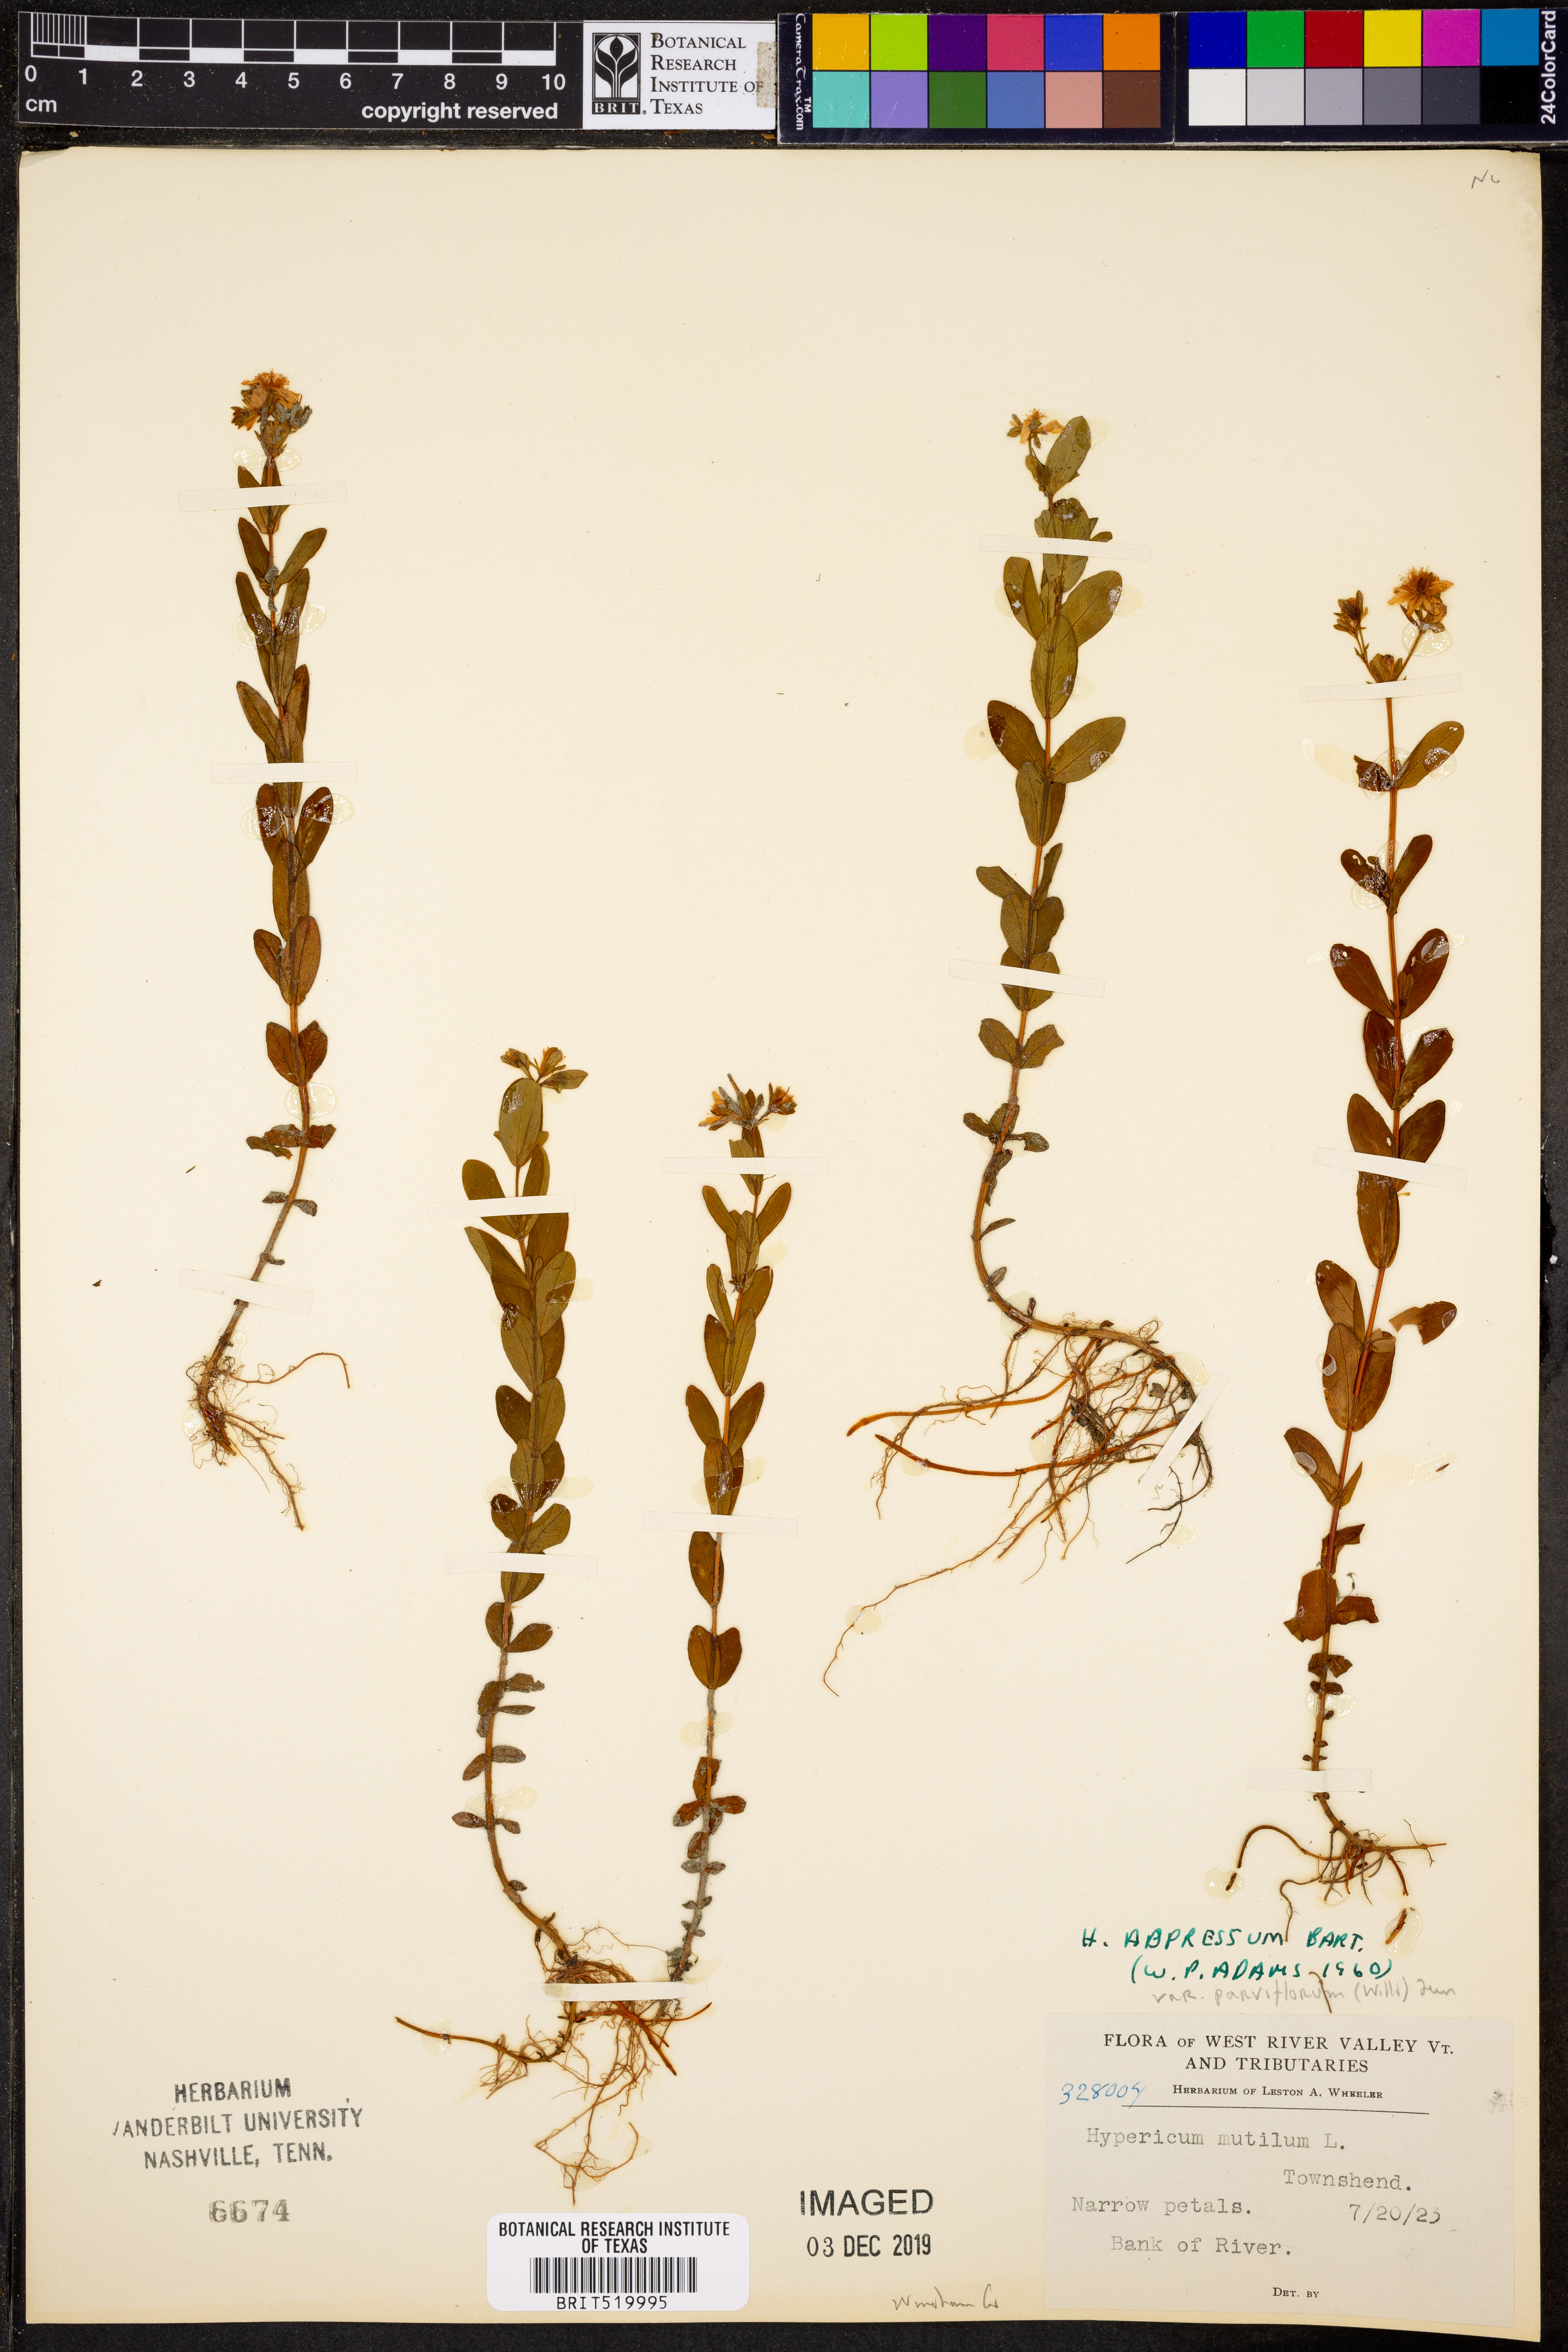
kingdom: Plantae
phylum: Tracheophyta
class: Magnoliopsida
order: Malpighiales
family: Hypericaceae
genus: Hypericum
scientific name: Hypericum adpressum
